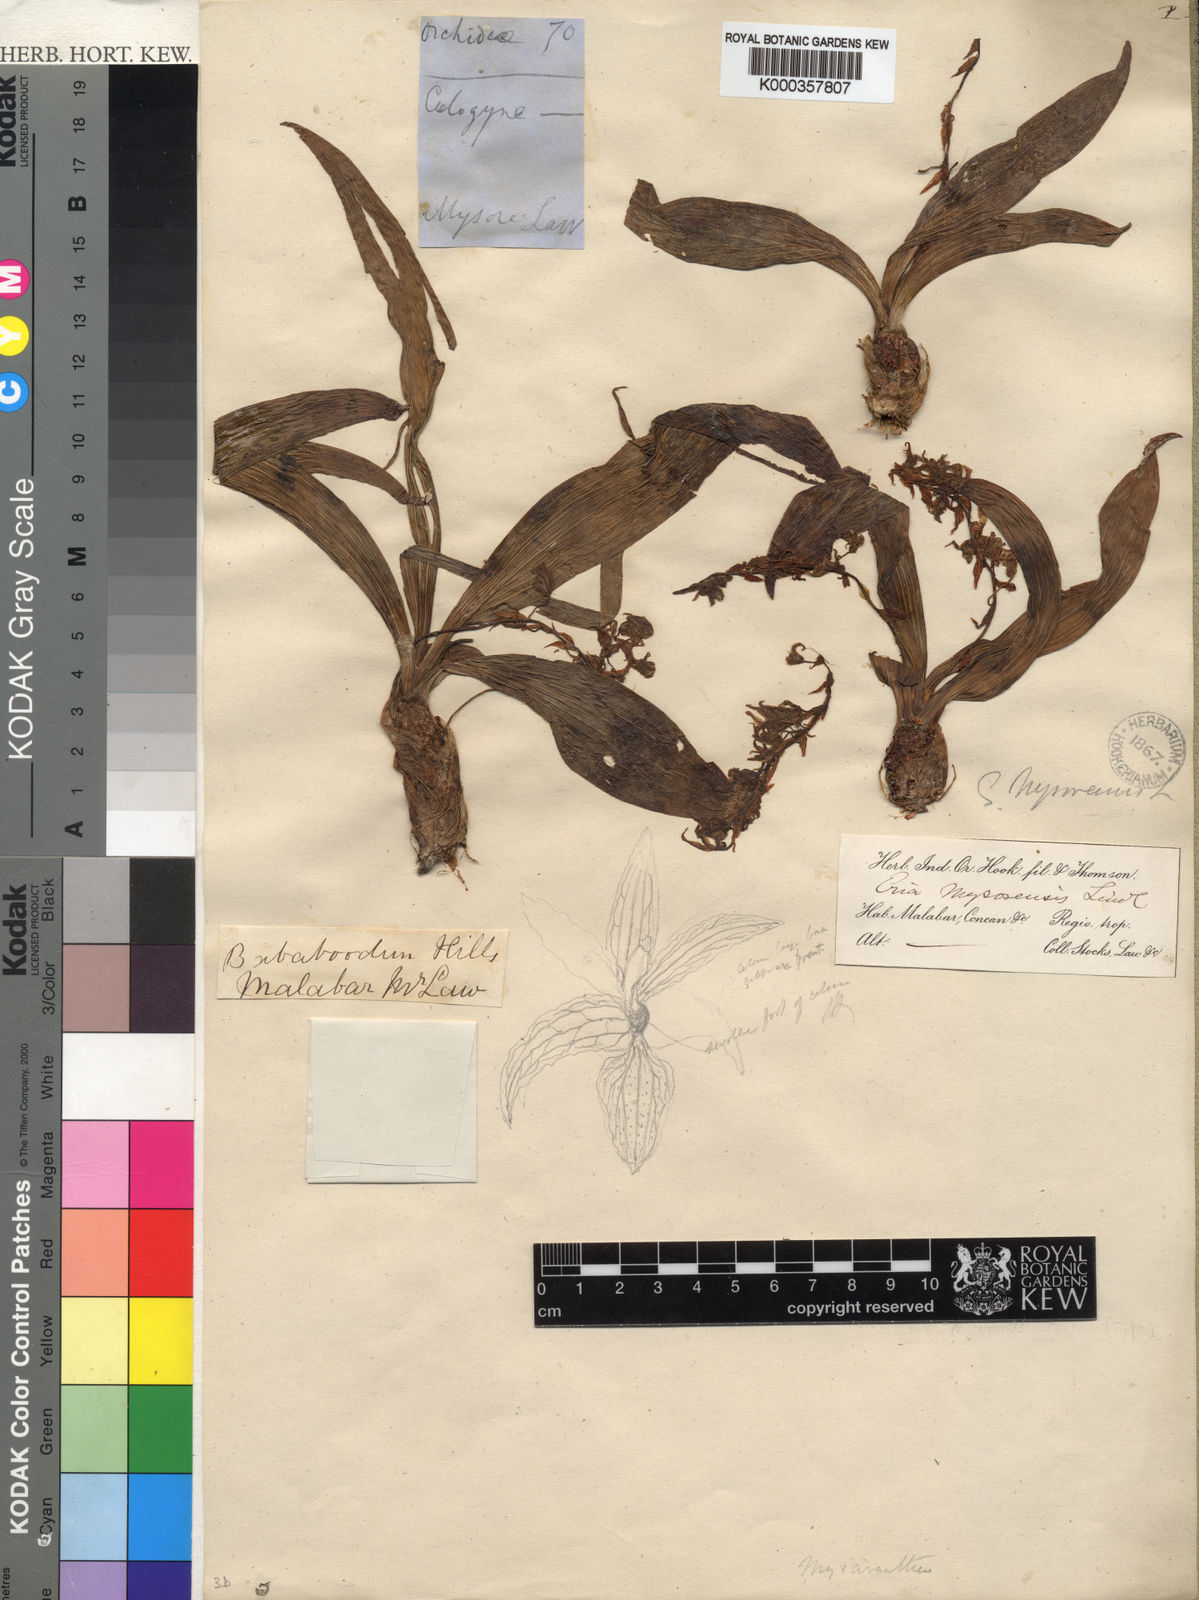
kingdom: Plantae
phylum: Tracheophyta
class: Liliopsida
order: Asparagales
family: Orchidaceae
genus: Pinalia
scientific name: Pinalia mysorensis
